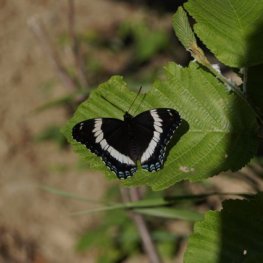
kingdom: Animalia
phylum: Arthropoda
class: Insecta
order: Lepidoptera
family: Nymphalidae
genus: Limenitis
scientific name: Limenitis arthemis
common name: Red-spotted Admiral
